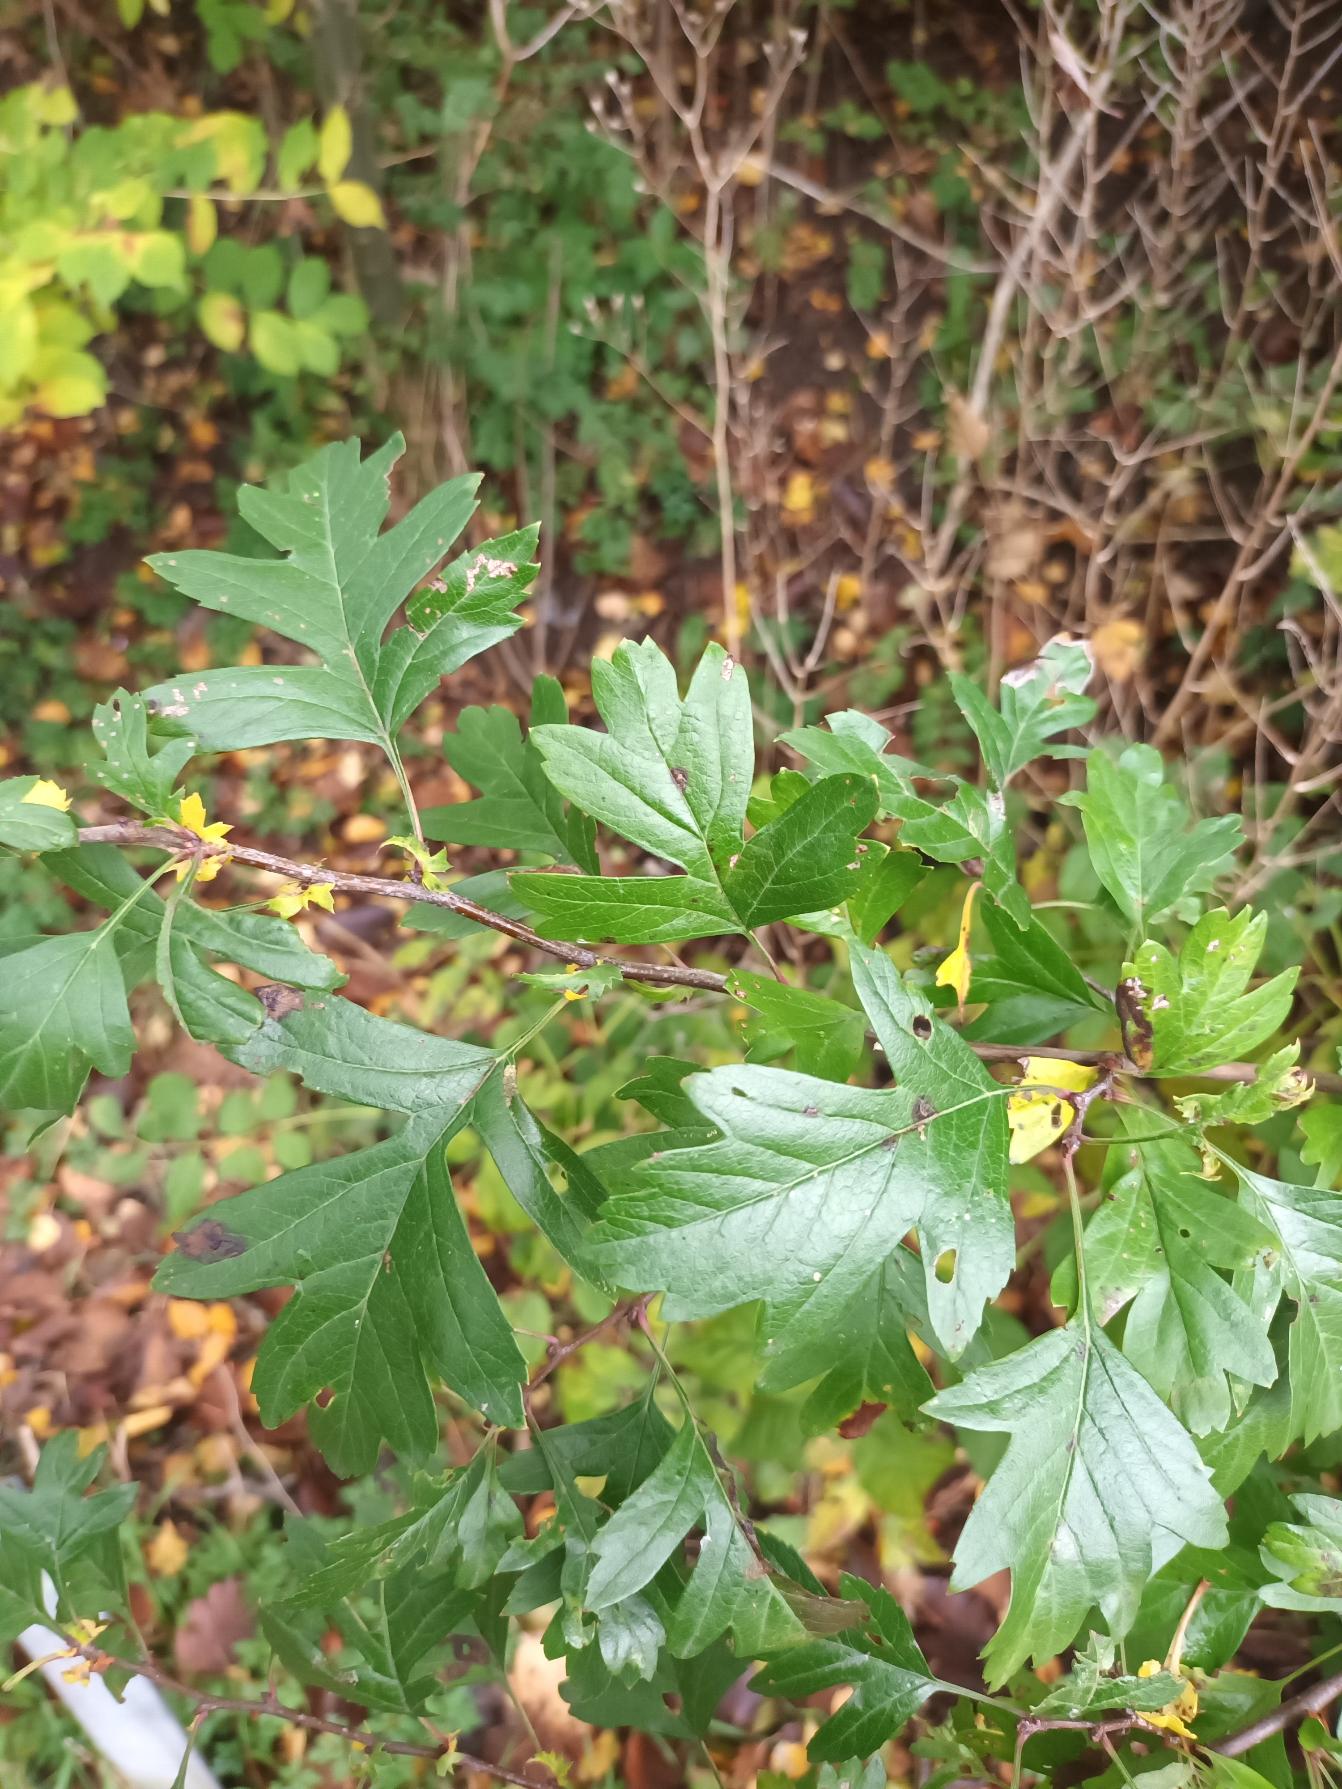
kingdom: Plantae
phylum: Tracheophyta
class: Magnoliopsida
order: Rosales
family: Rosaceae
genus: Crataegus
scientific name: Crataegus monogyna
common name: Engriflet hvidtjørn
